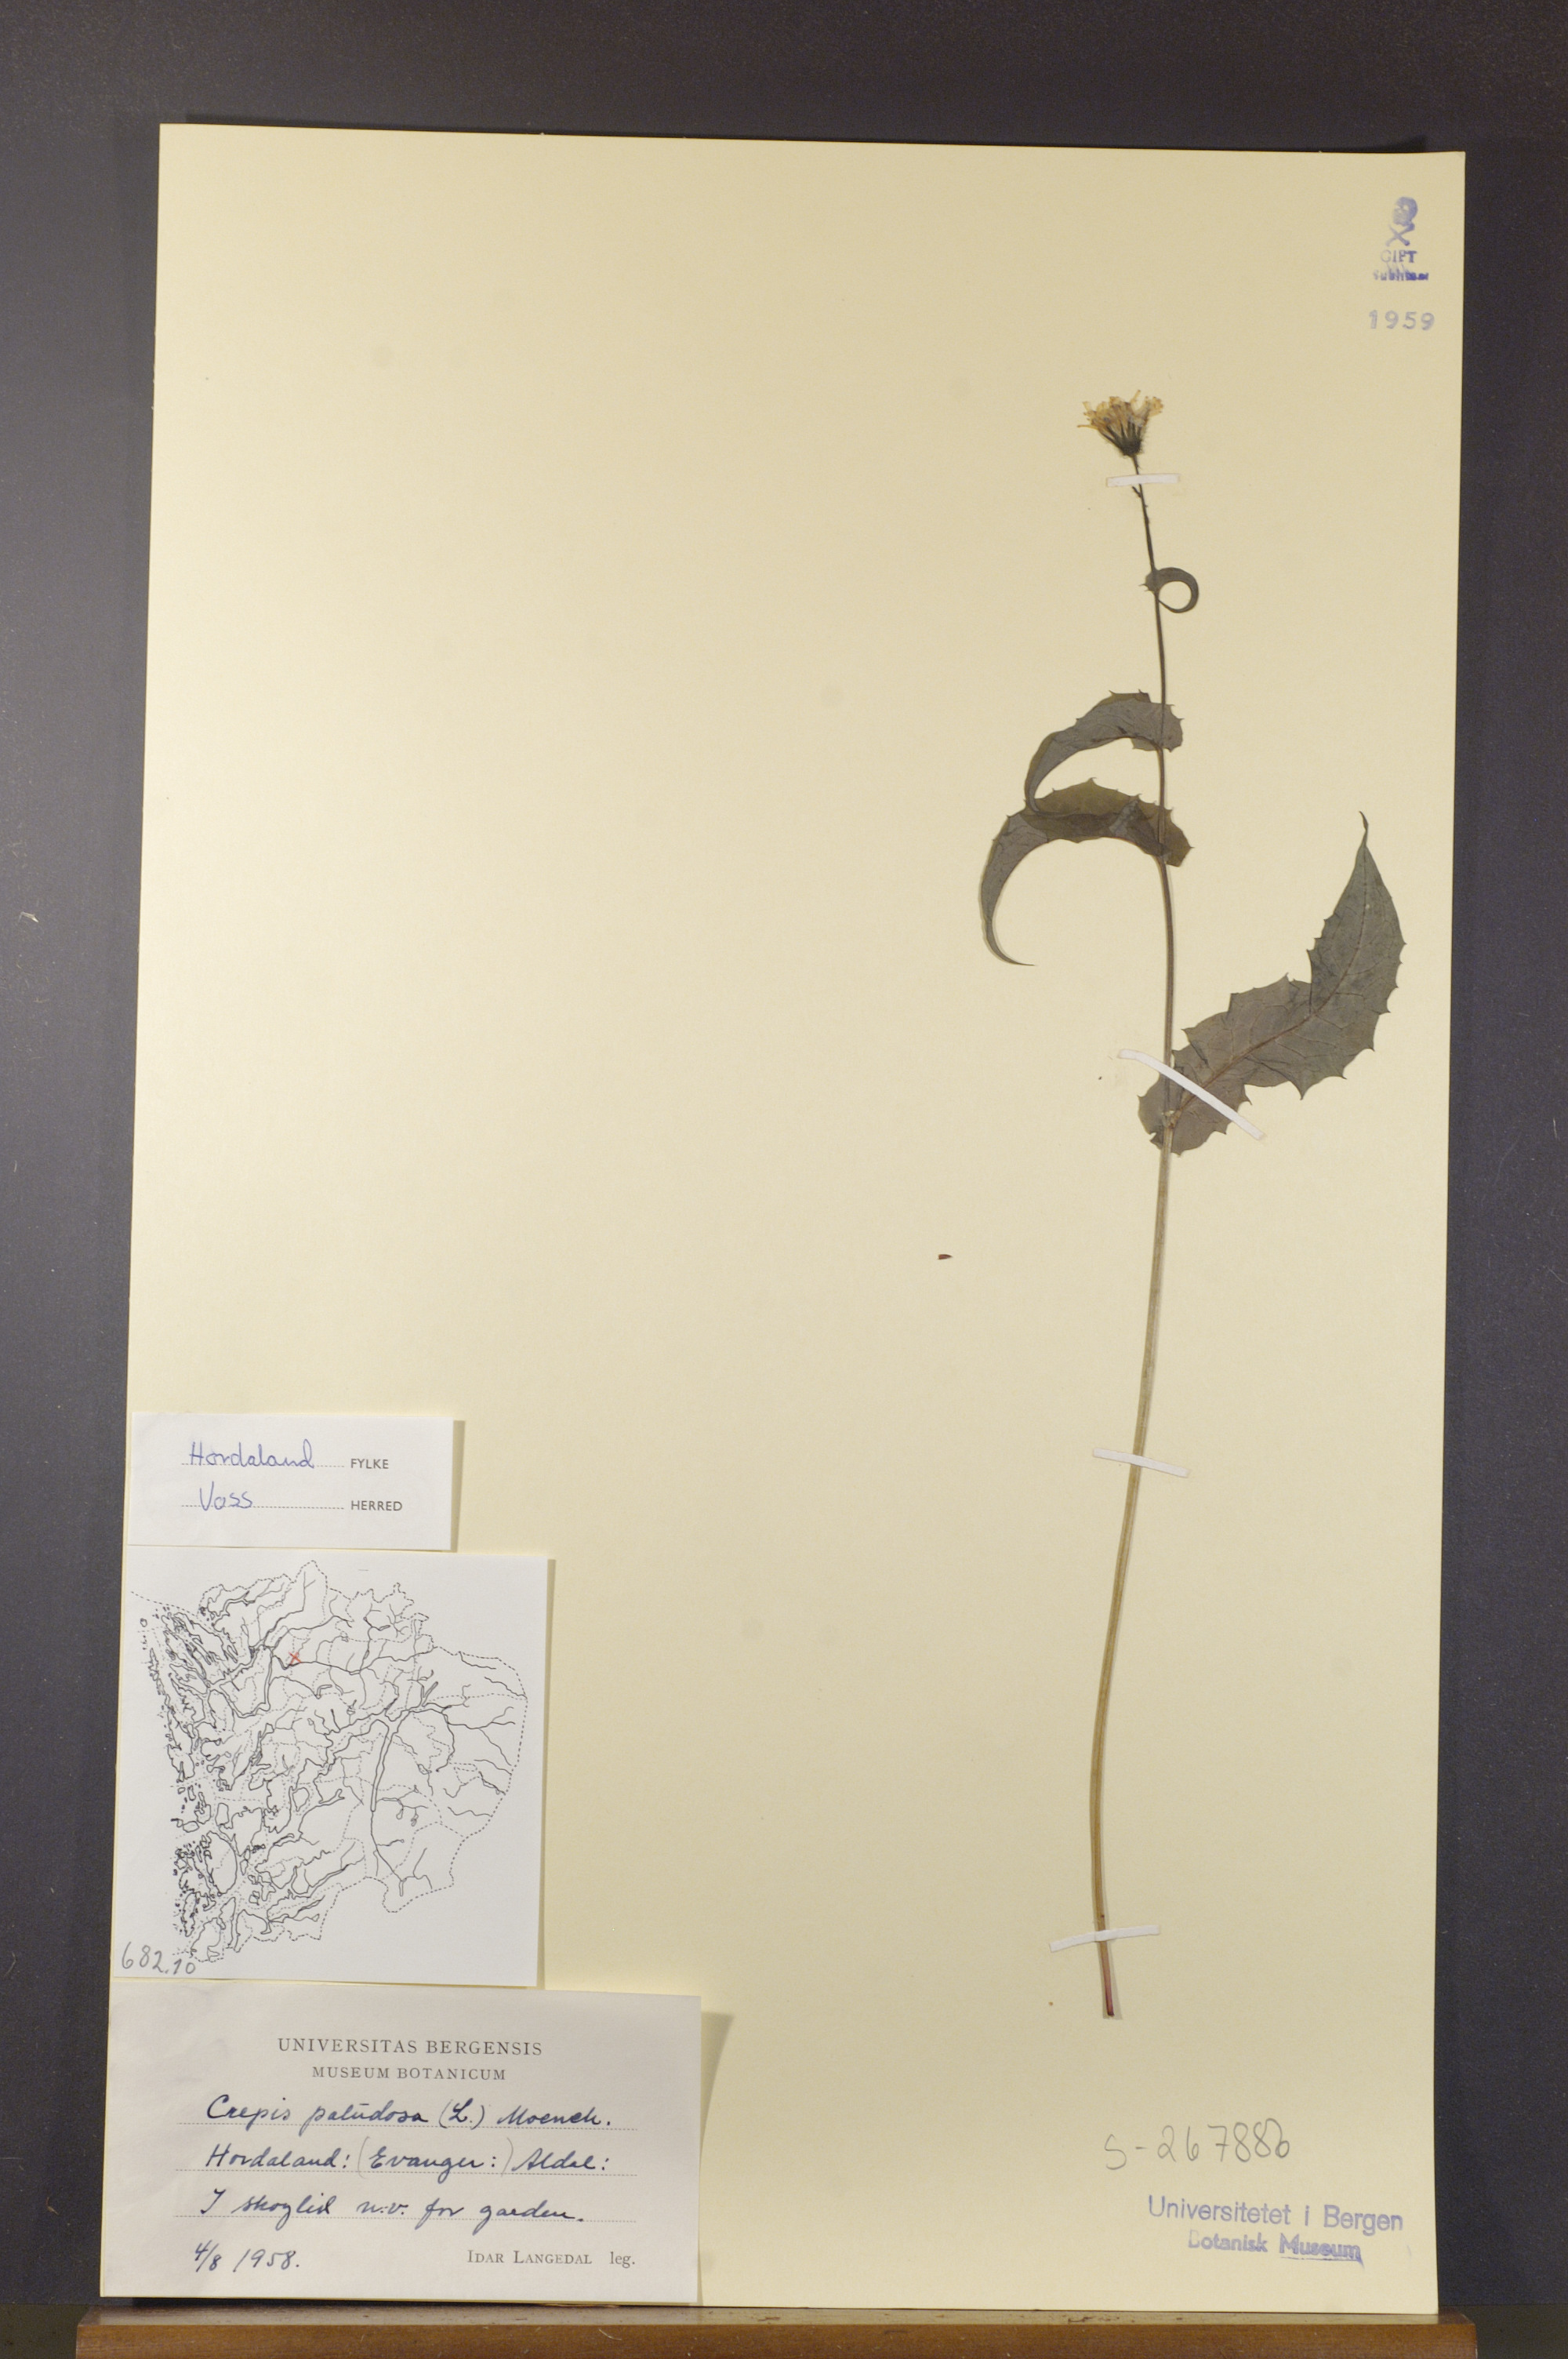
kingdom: Plantae
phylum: Tracheophyta
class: Magnoliopsida
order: Asterales
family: Asteraceae
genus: Crepis
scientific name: Crepis paludosa
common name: Marsh hawk's-beard
